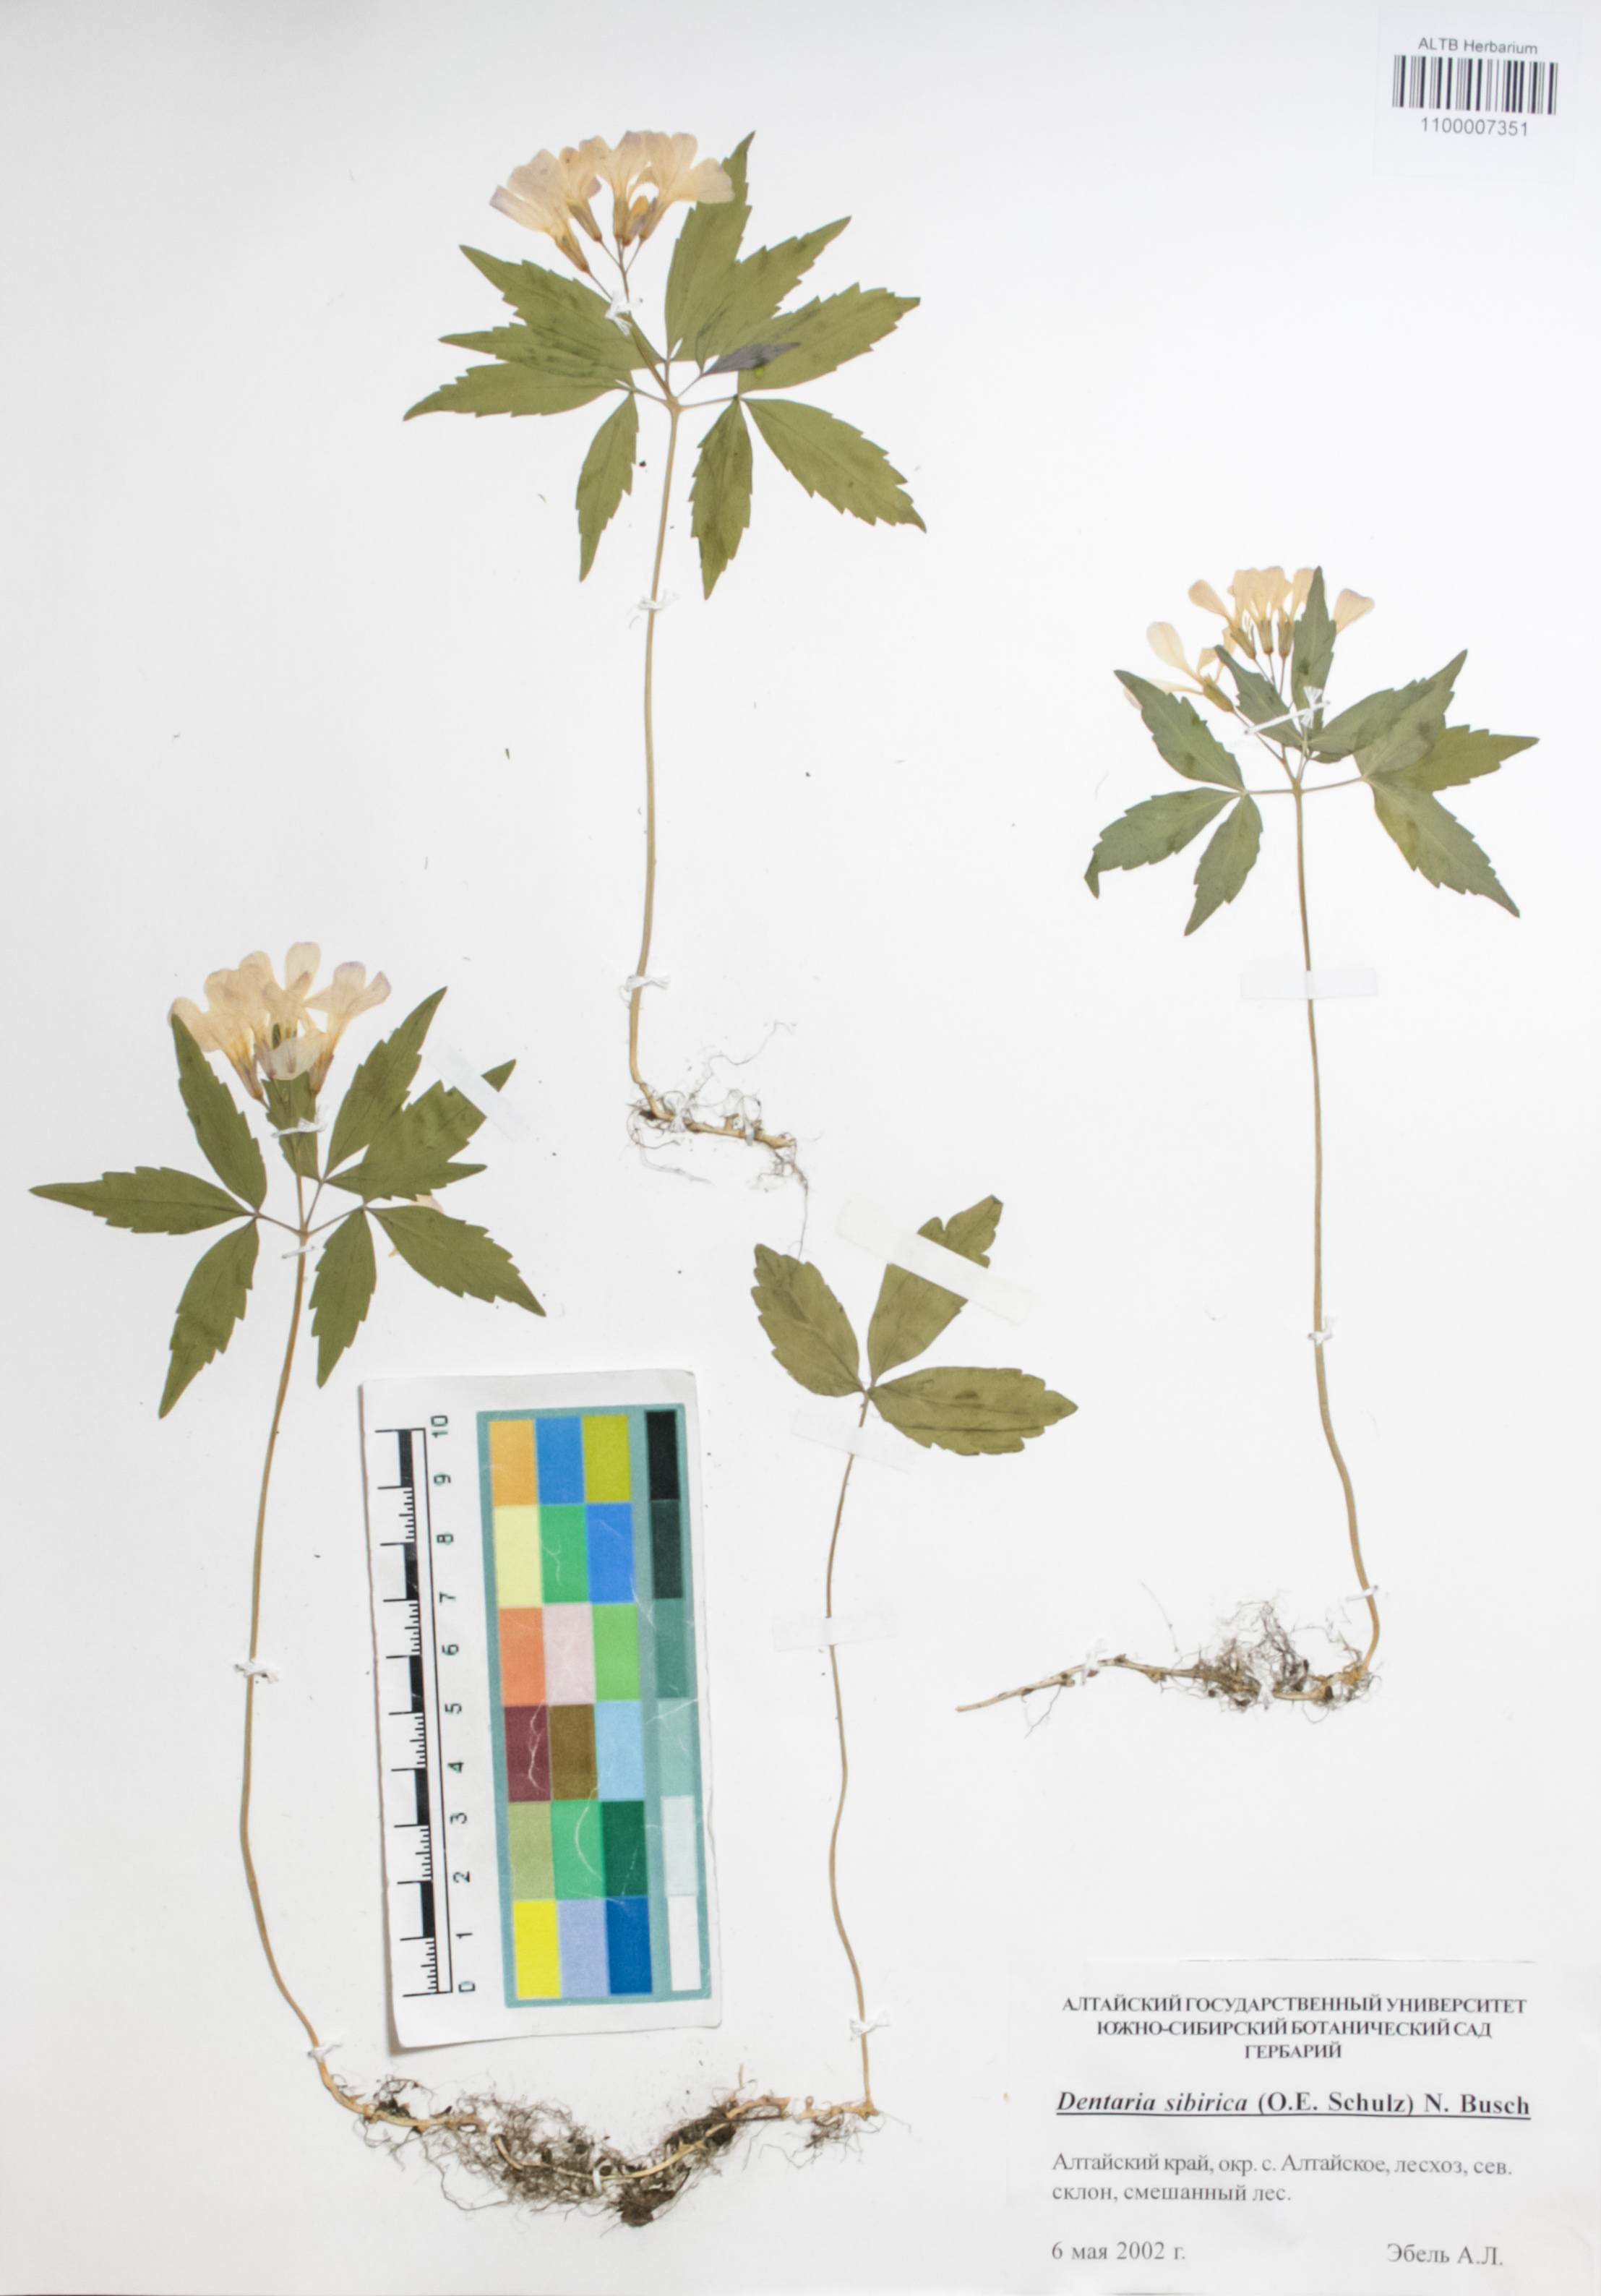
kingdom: Plantae
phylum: Tracheophyta
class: Magnoliopsida
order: Brassicales
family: Brassicaceae
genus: Cardamine
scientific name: Cardamine glanduligera
